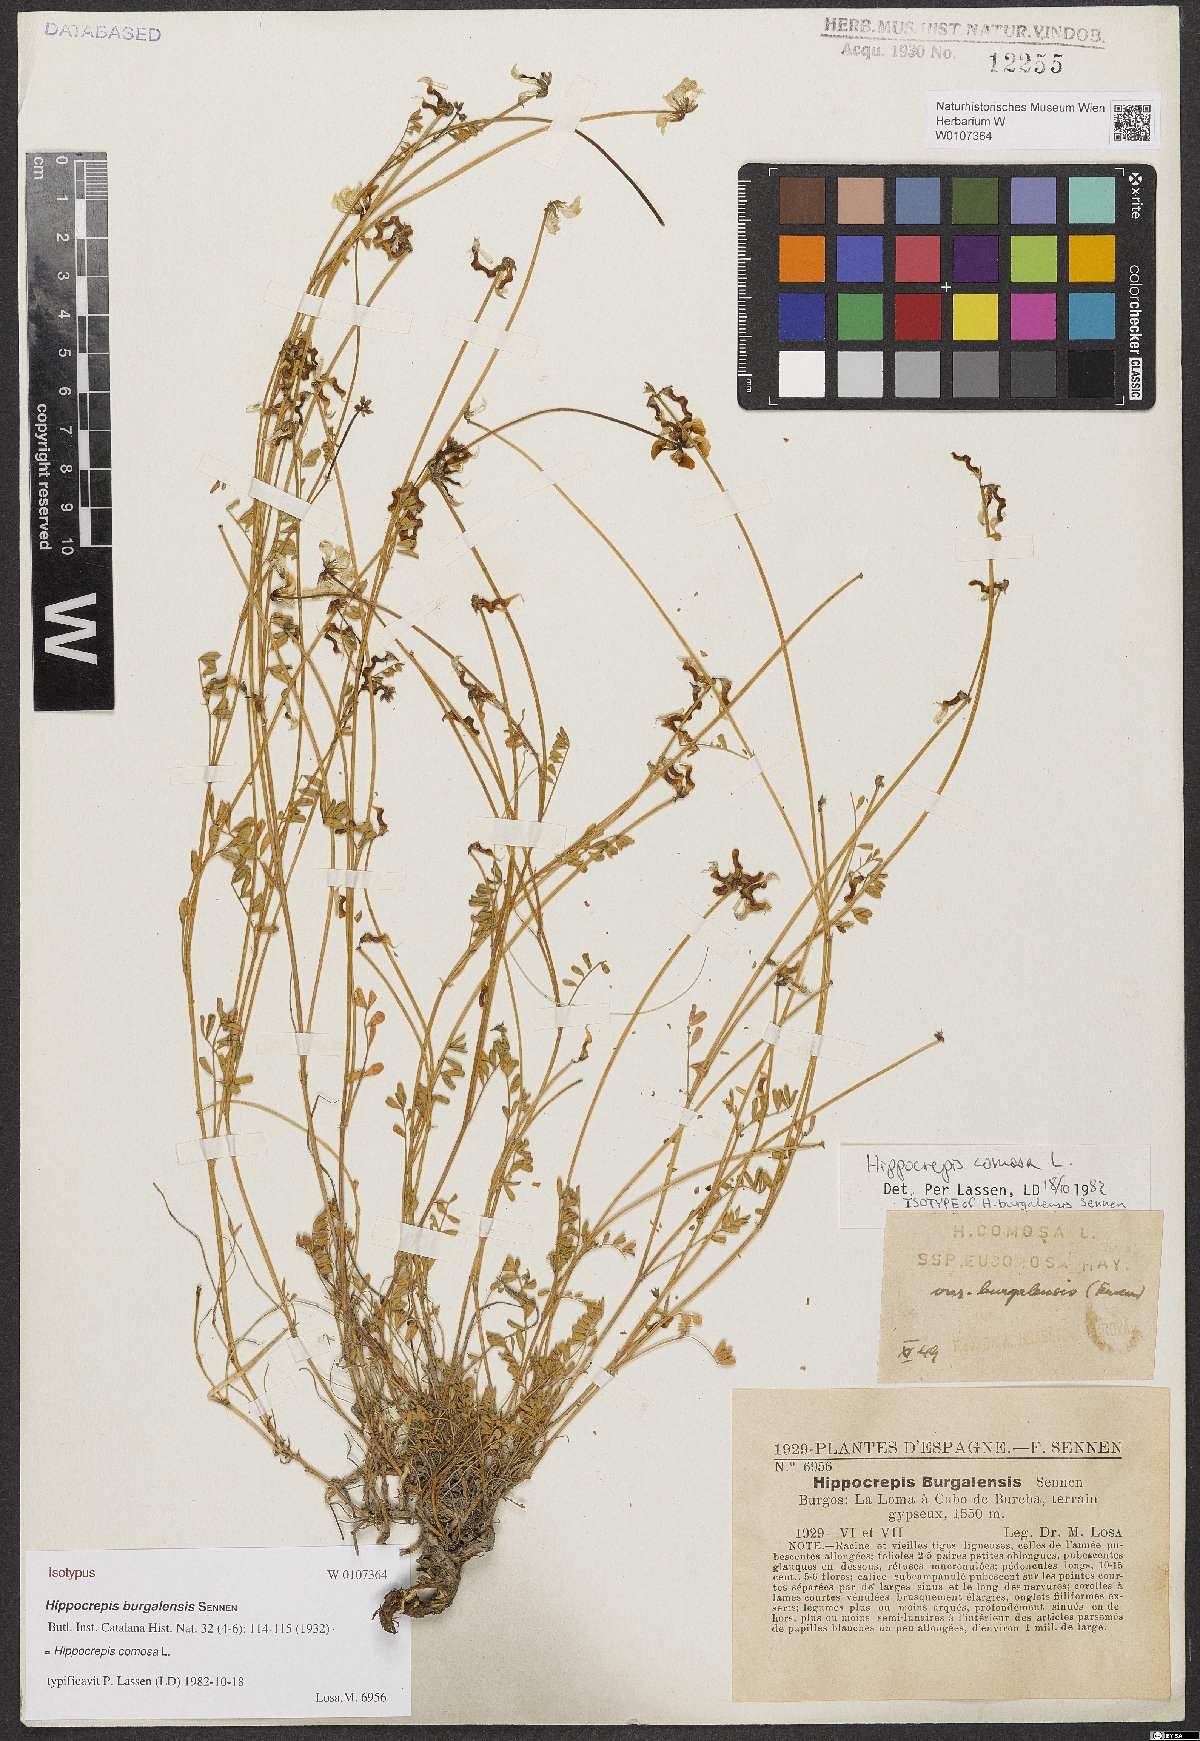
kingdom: Plantae
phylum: Tracheophyta
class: Magnoliopsida
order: Fabales
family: Fabaceae
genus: Hippocrepis
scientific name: Hippocrepis comosa
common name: Horseshoe vetch
